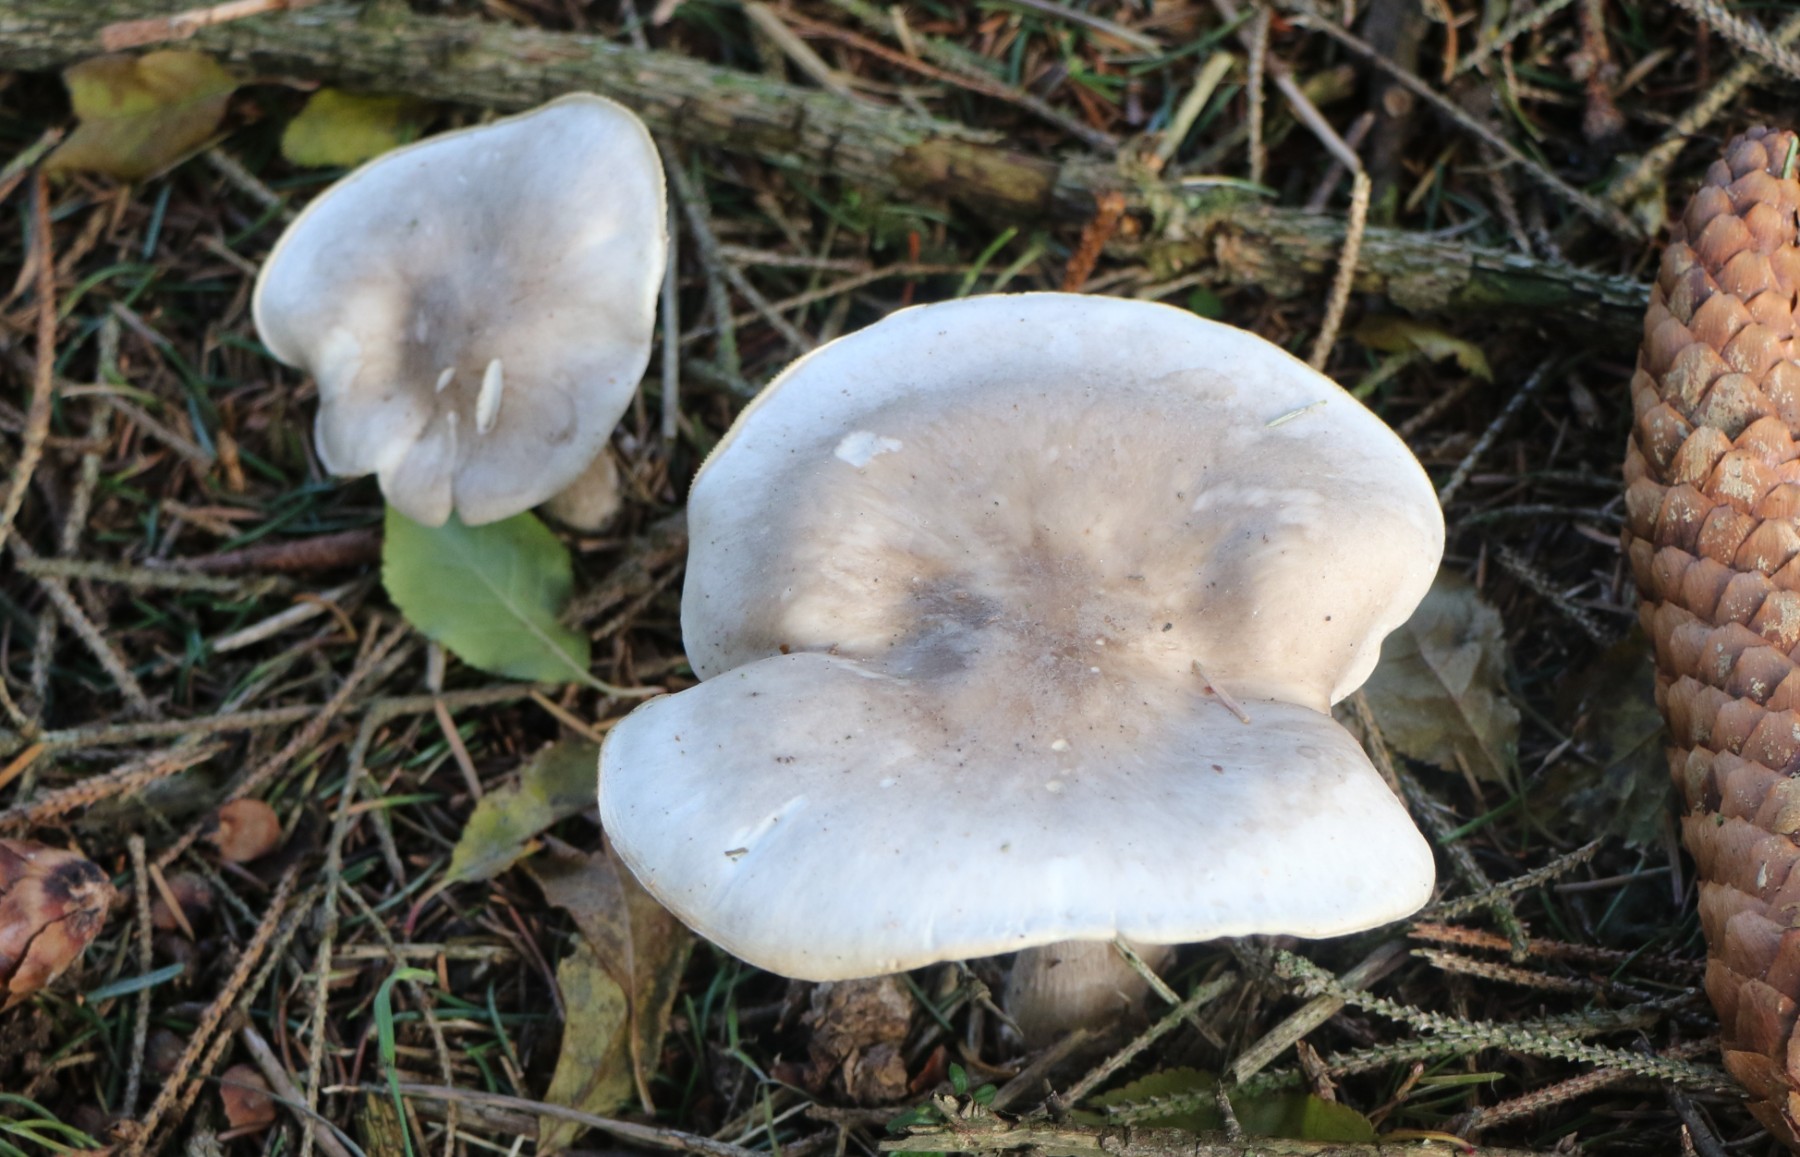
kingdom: Fungi
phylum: Basidiomycota
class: Agaricomycetes
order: Agaricales
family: Tricholomataceae
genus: Clitocybe
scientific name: Clitocybe nebularis
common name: tåge-tragthat
